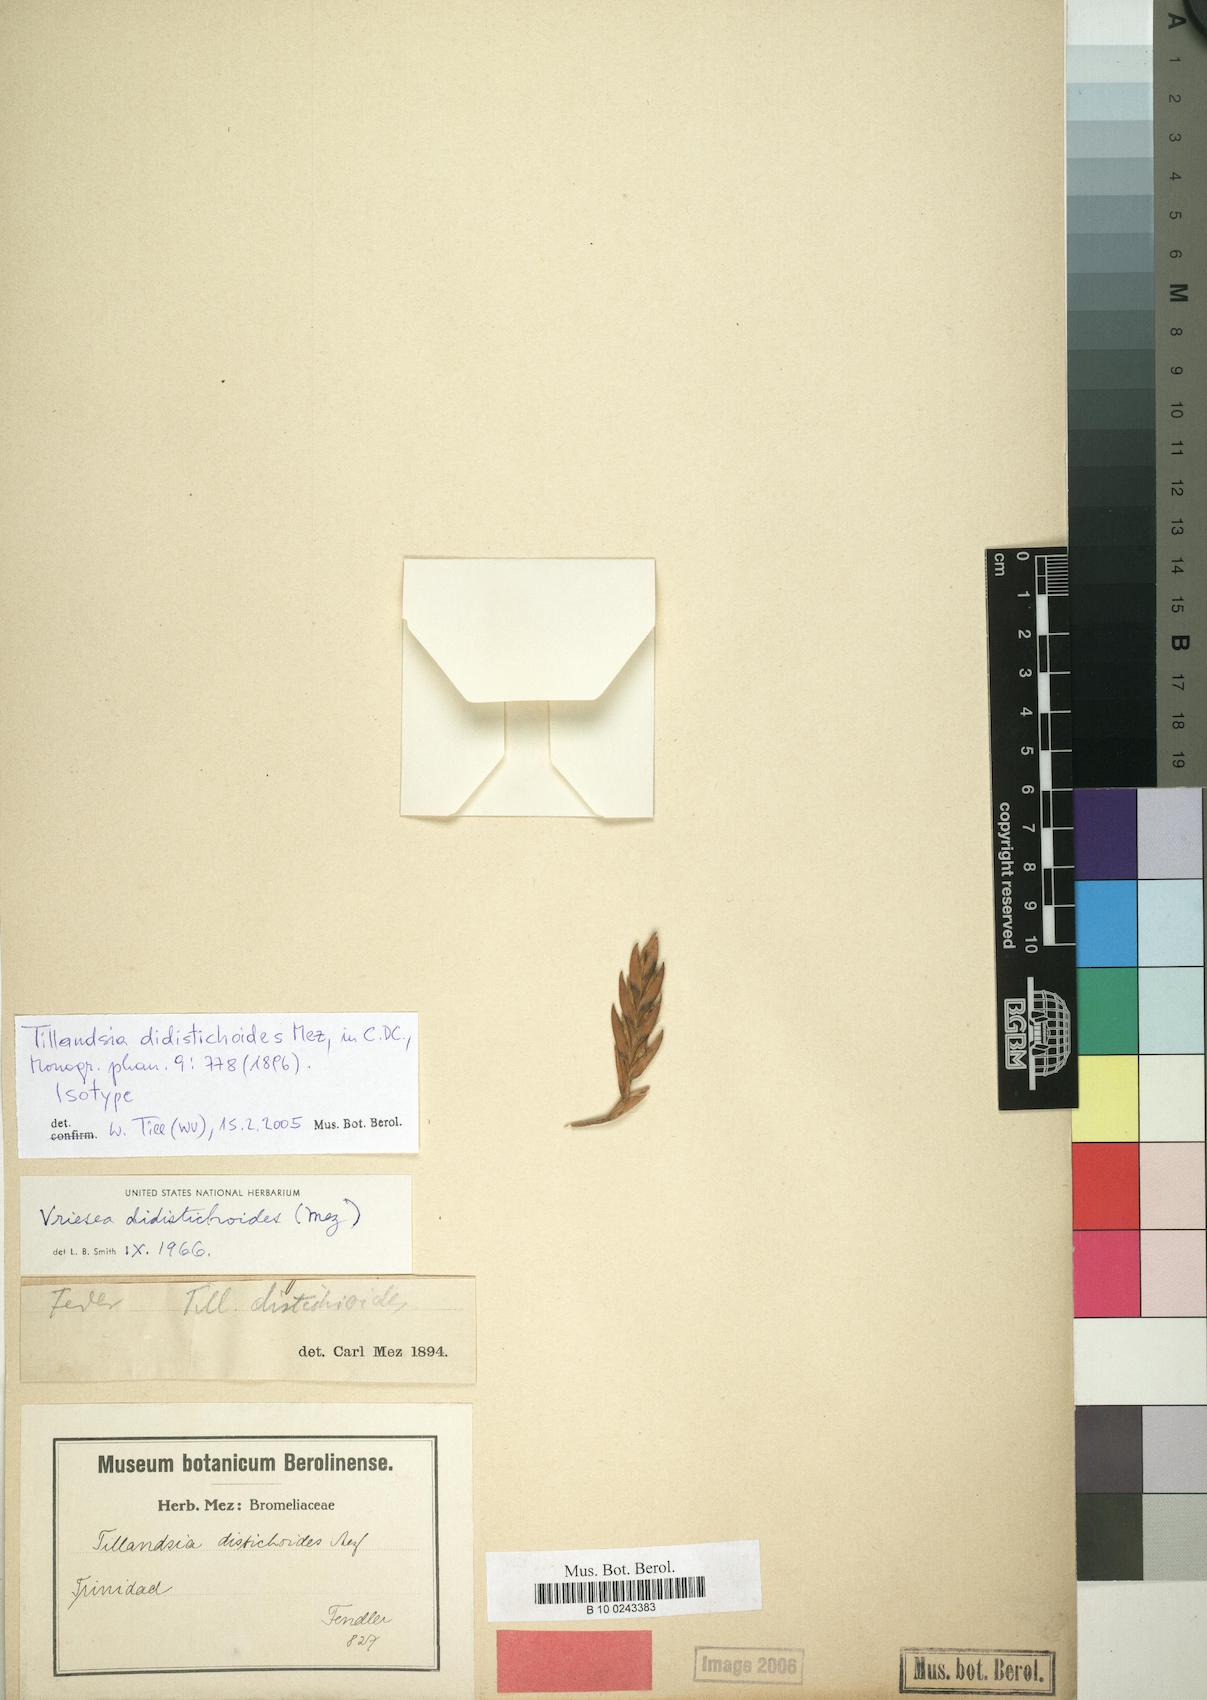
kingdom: Plantae
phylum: Tracheophyta
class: Liliopsida
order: Poales
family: Bromeliaceae
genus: Tillandsia
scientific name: Tillandsia didistichoides
